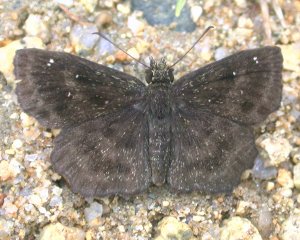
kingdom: Animalia
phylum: Arthropoda
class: Insecta
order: Lepidoptera
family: Hesperiidae
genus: Staphylus
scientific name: Staphylus mazans
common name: Hayhurst's Scallopwing
